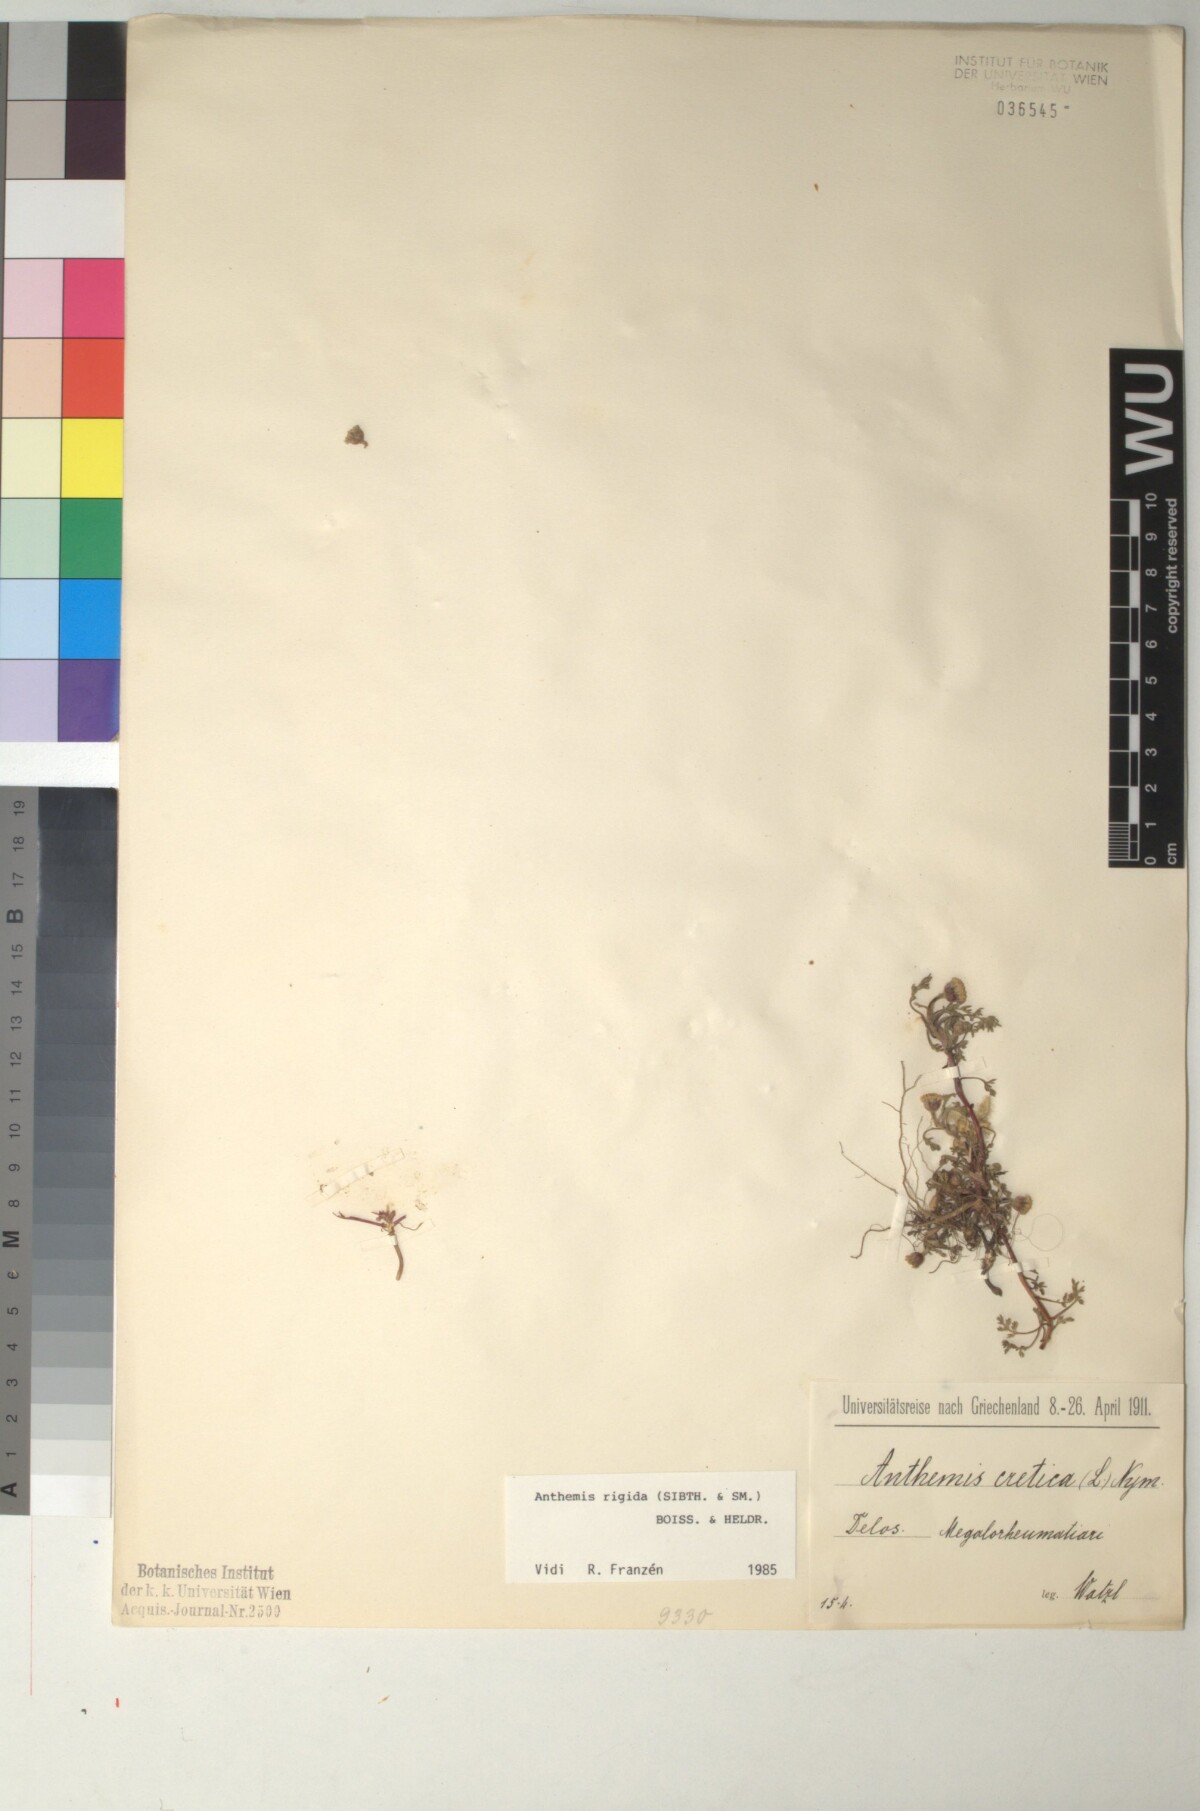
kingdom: Plantae
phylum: Tracheophyta
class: Magnoliopsida
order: Asterales
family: Asteraceae
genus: Anthemis
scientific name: Anthemis rigida
